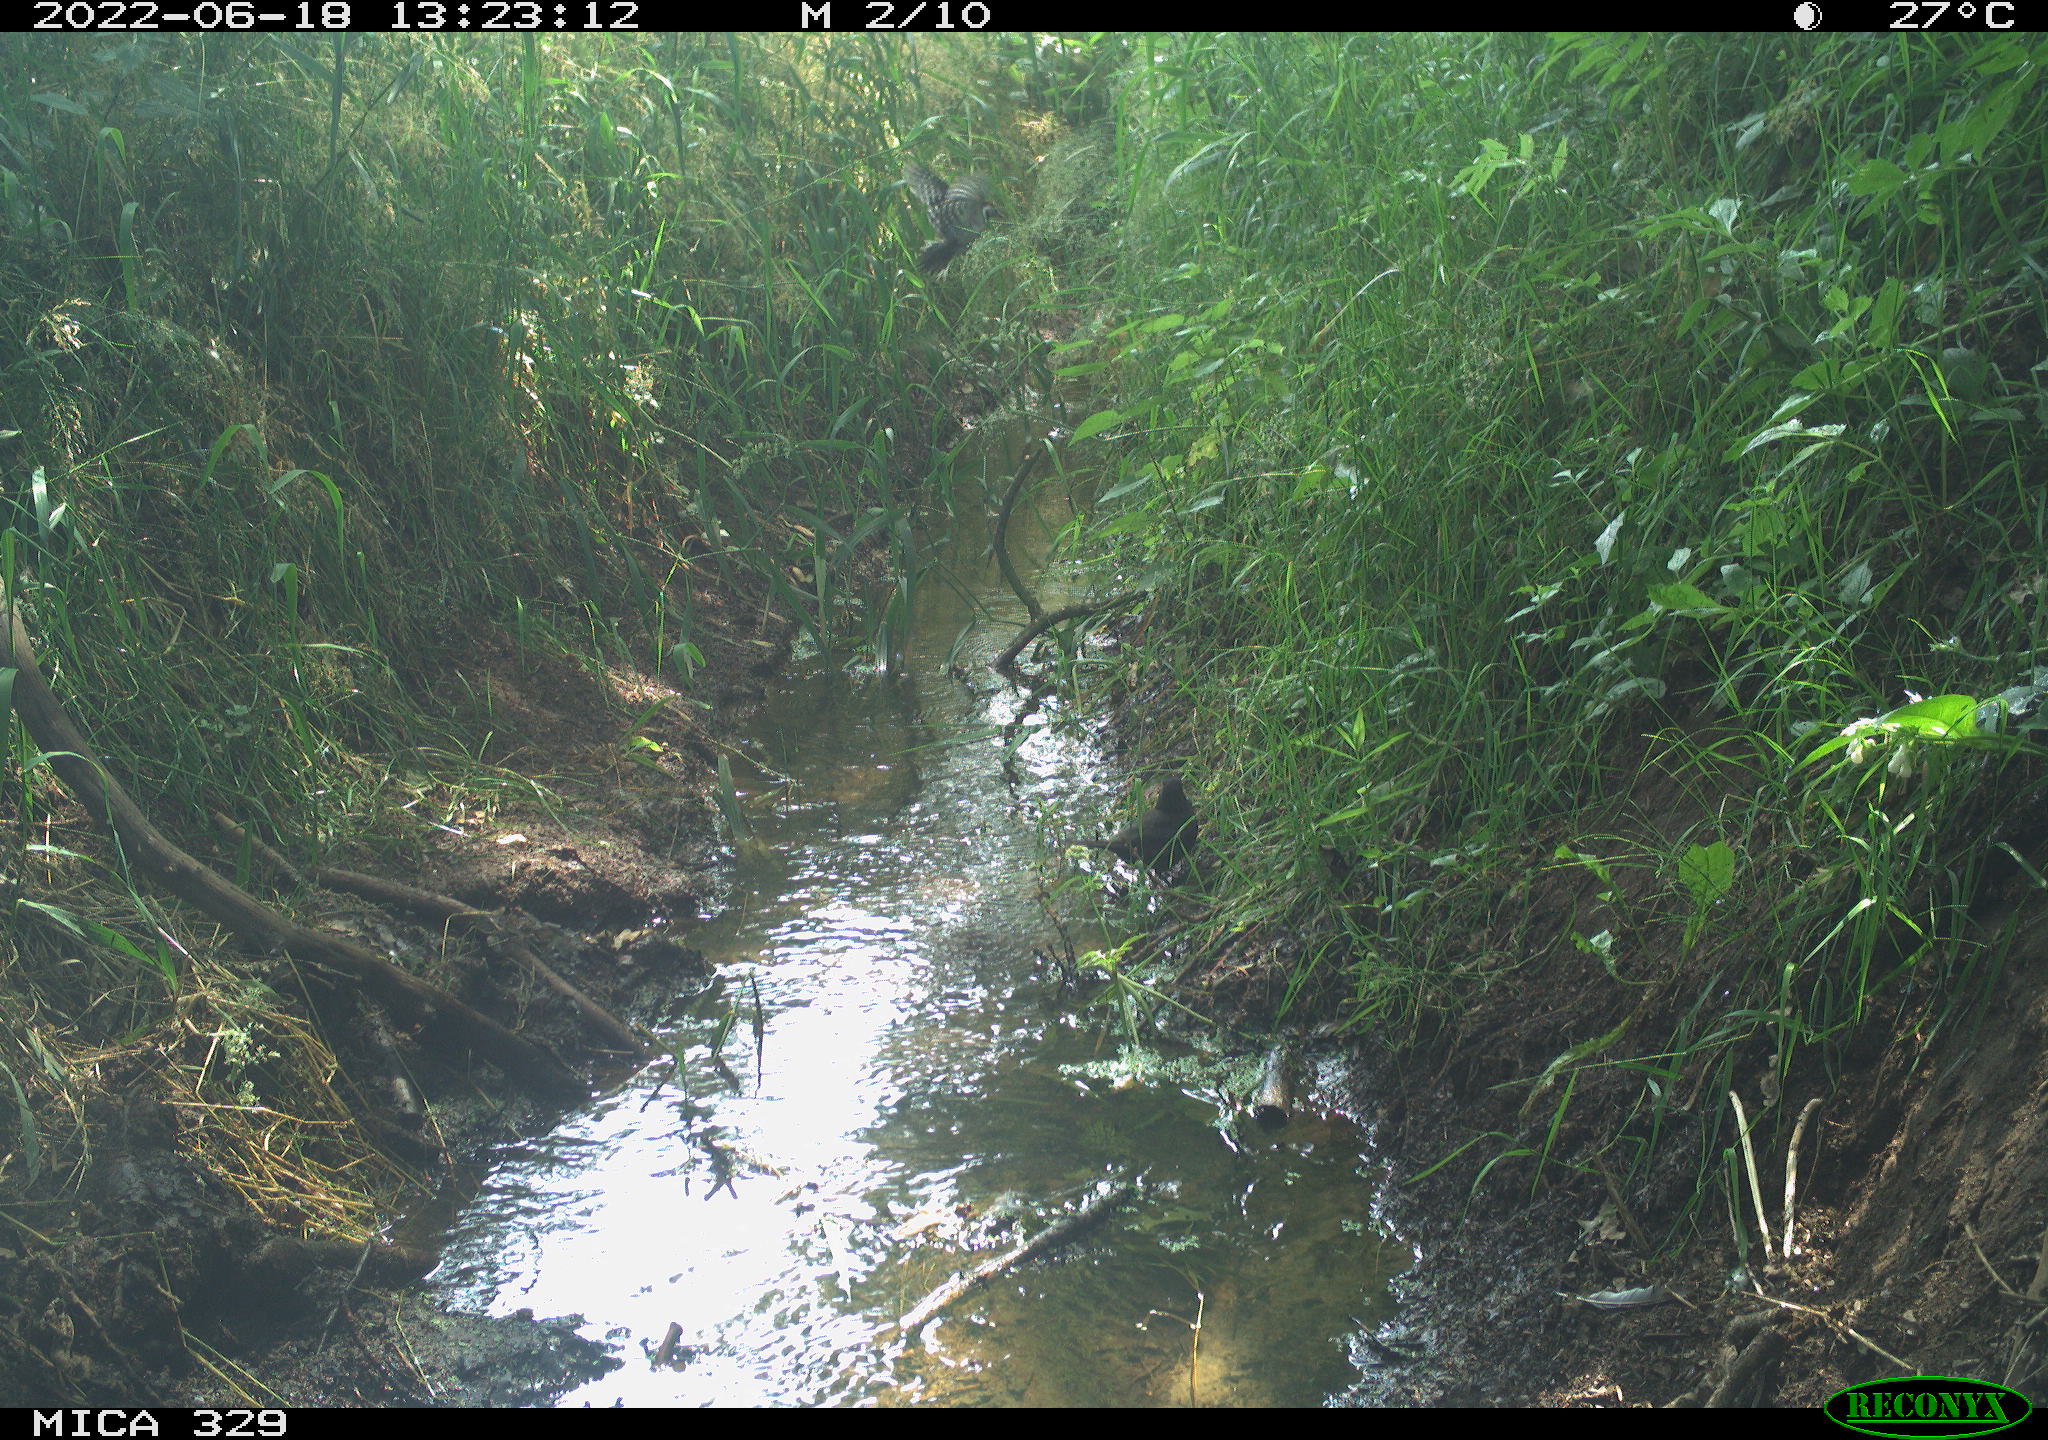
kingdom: Animalia
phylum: Chordata
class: Aves
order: Passeriformes
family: Turdidae
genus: Turdus
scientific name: Turdus merula
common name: Common blackbird
